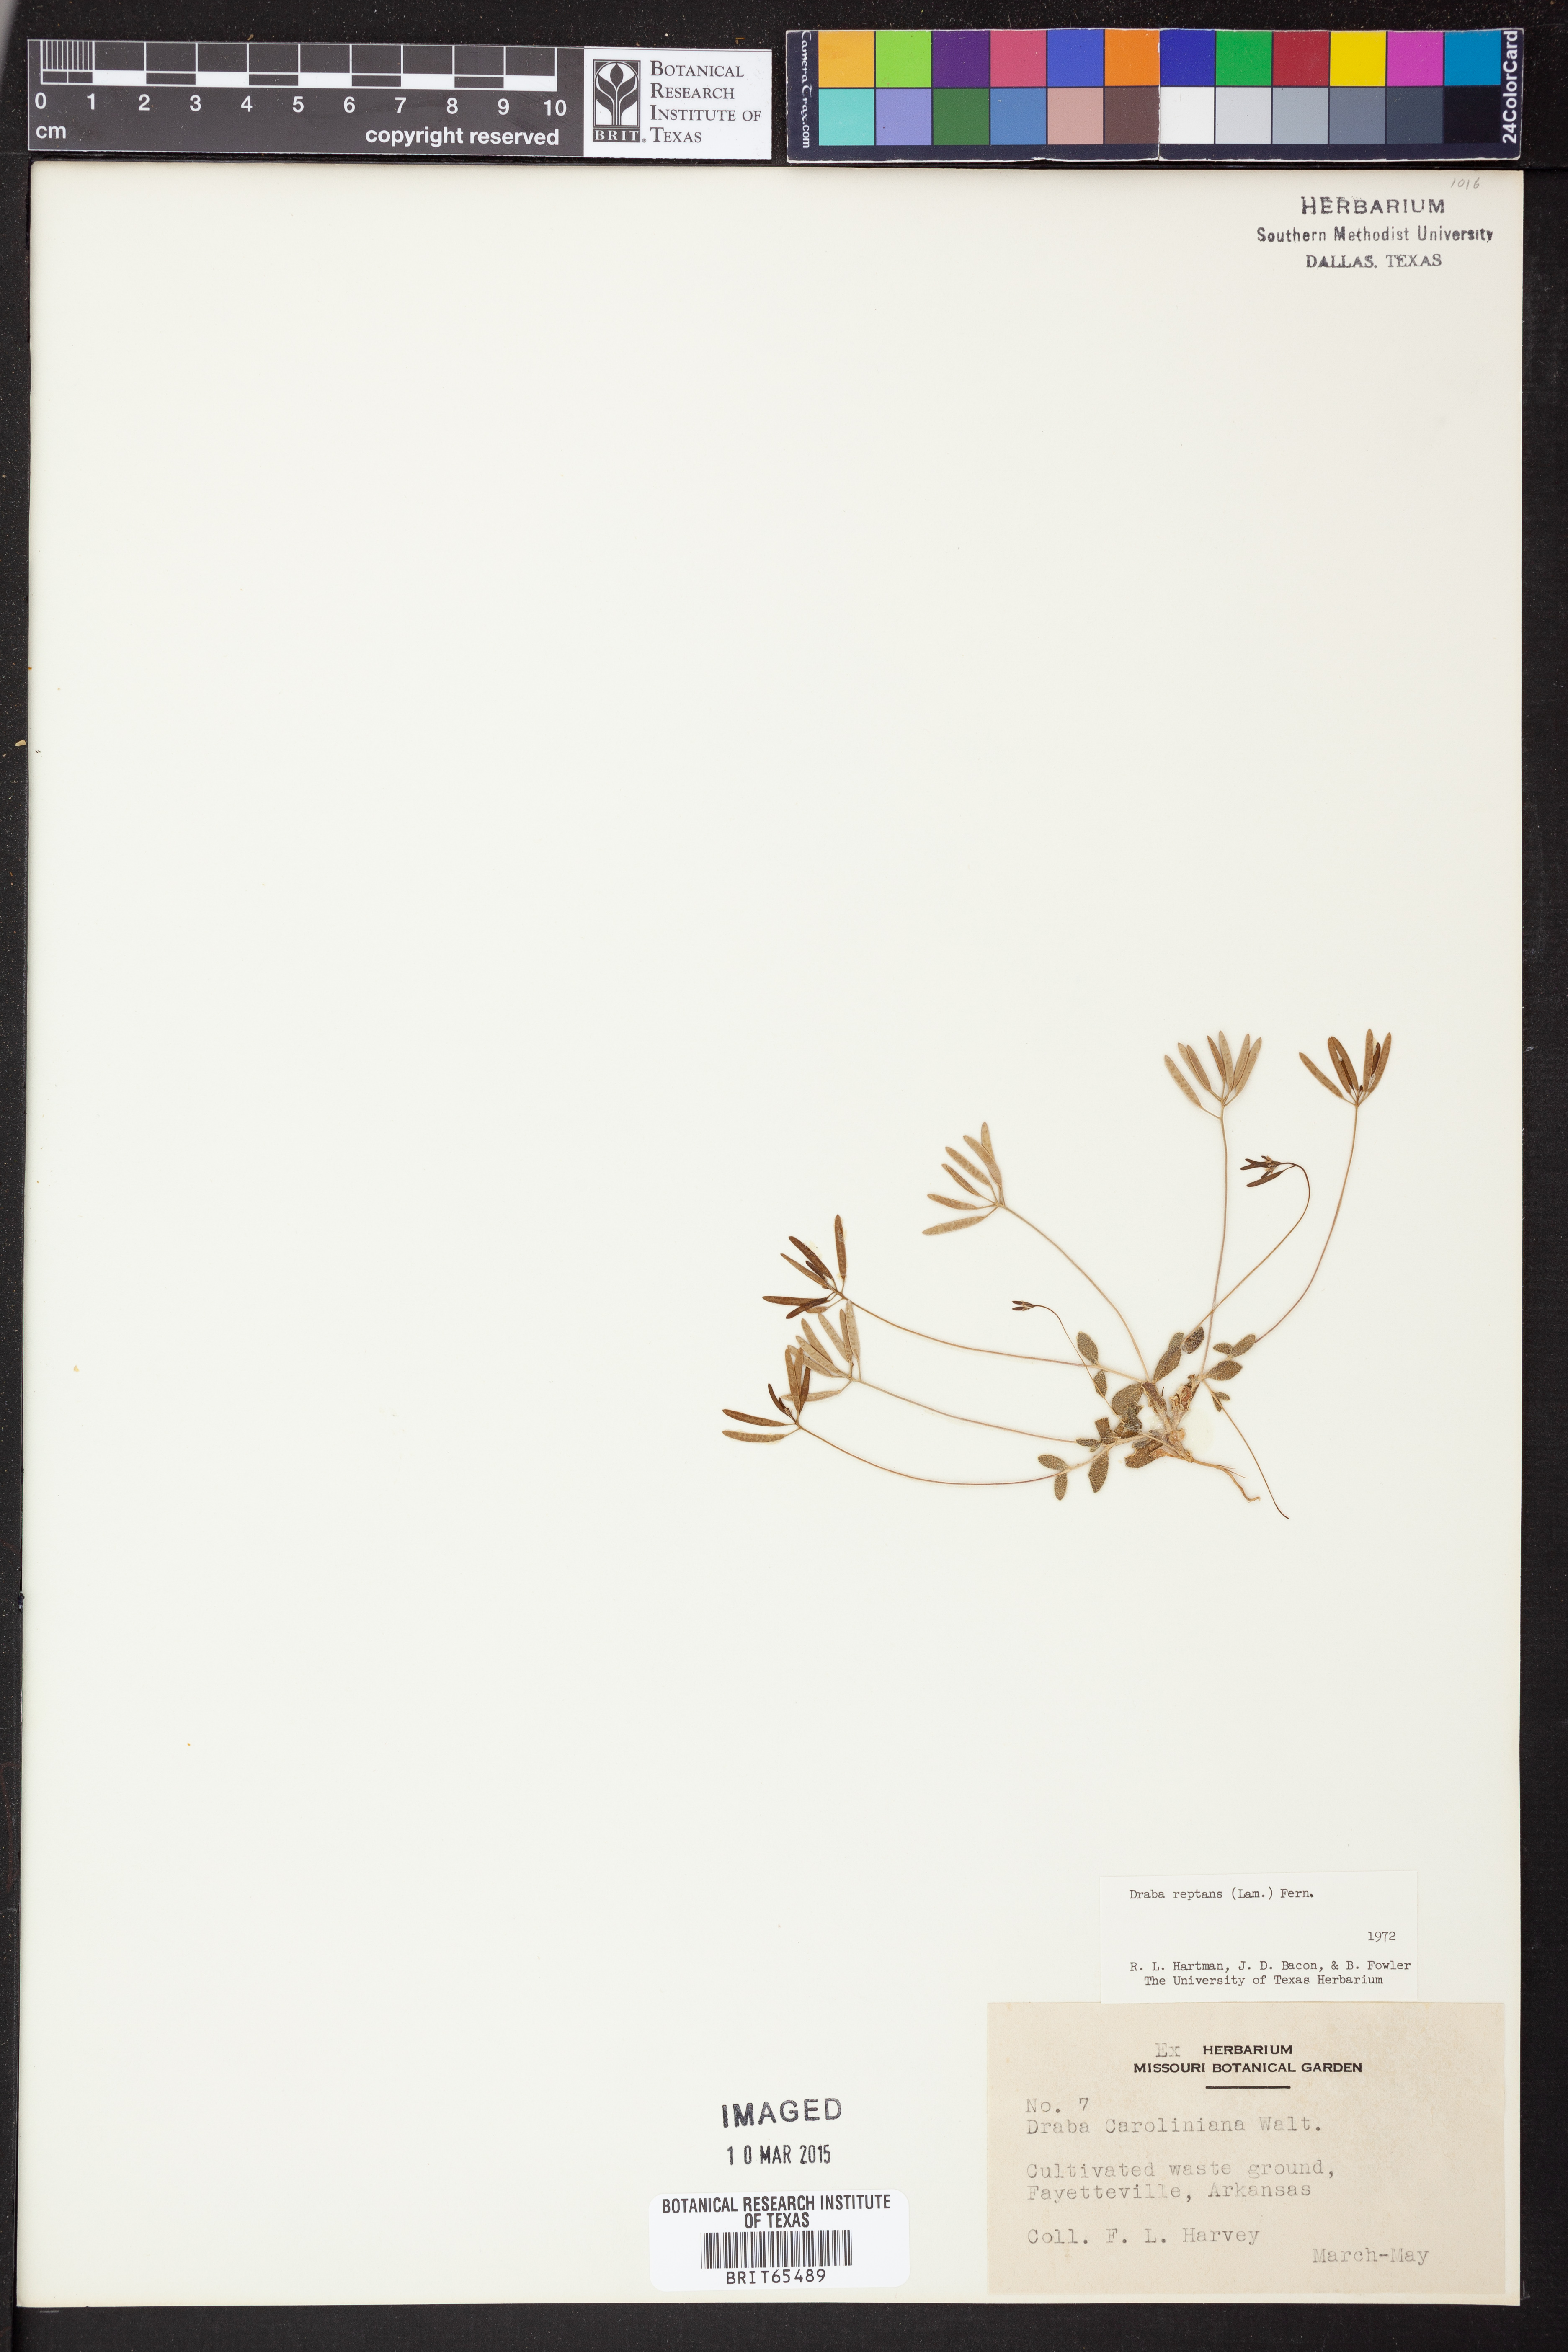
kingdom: Plantae
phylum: Tracheophyta
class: Magnoliopsida
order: Brassicales
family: Brassicaceae
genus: Tomostima
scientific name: Tomostima reptans
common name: Carolina draba
